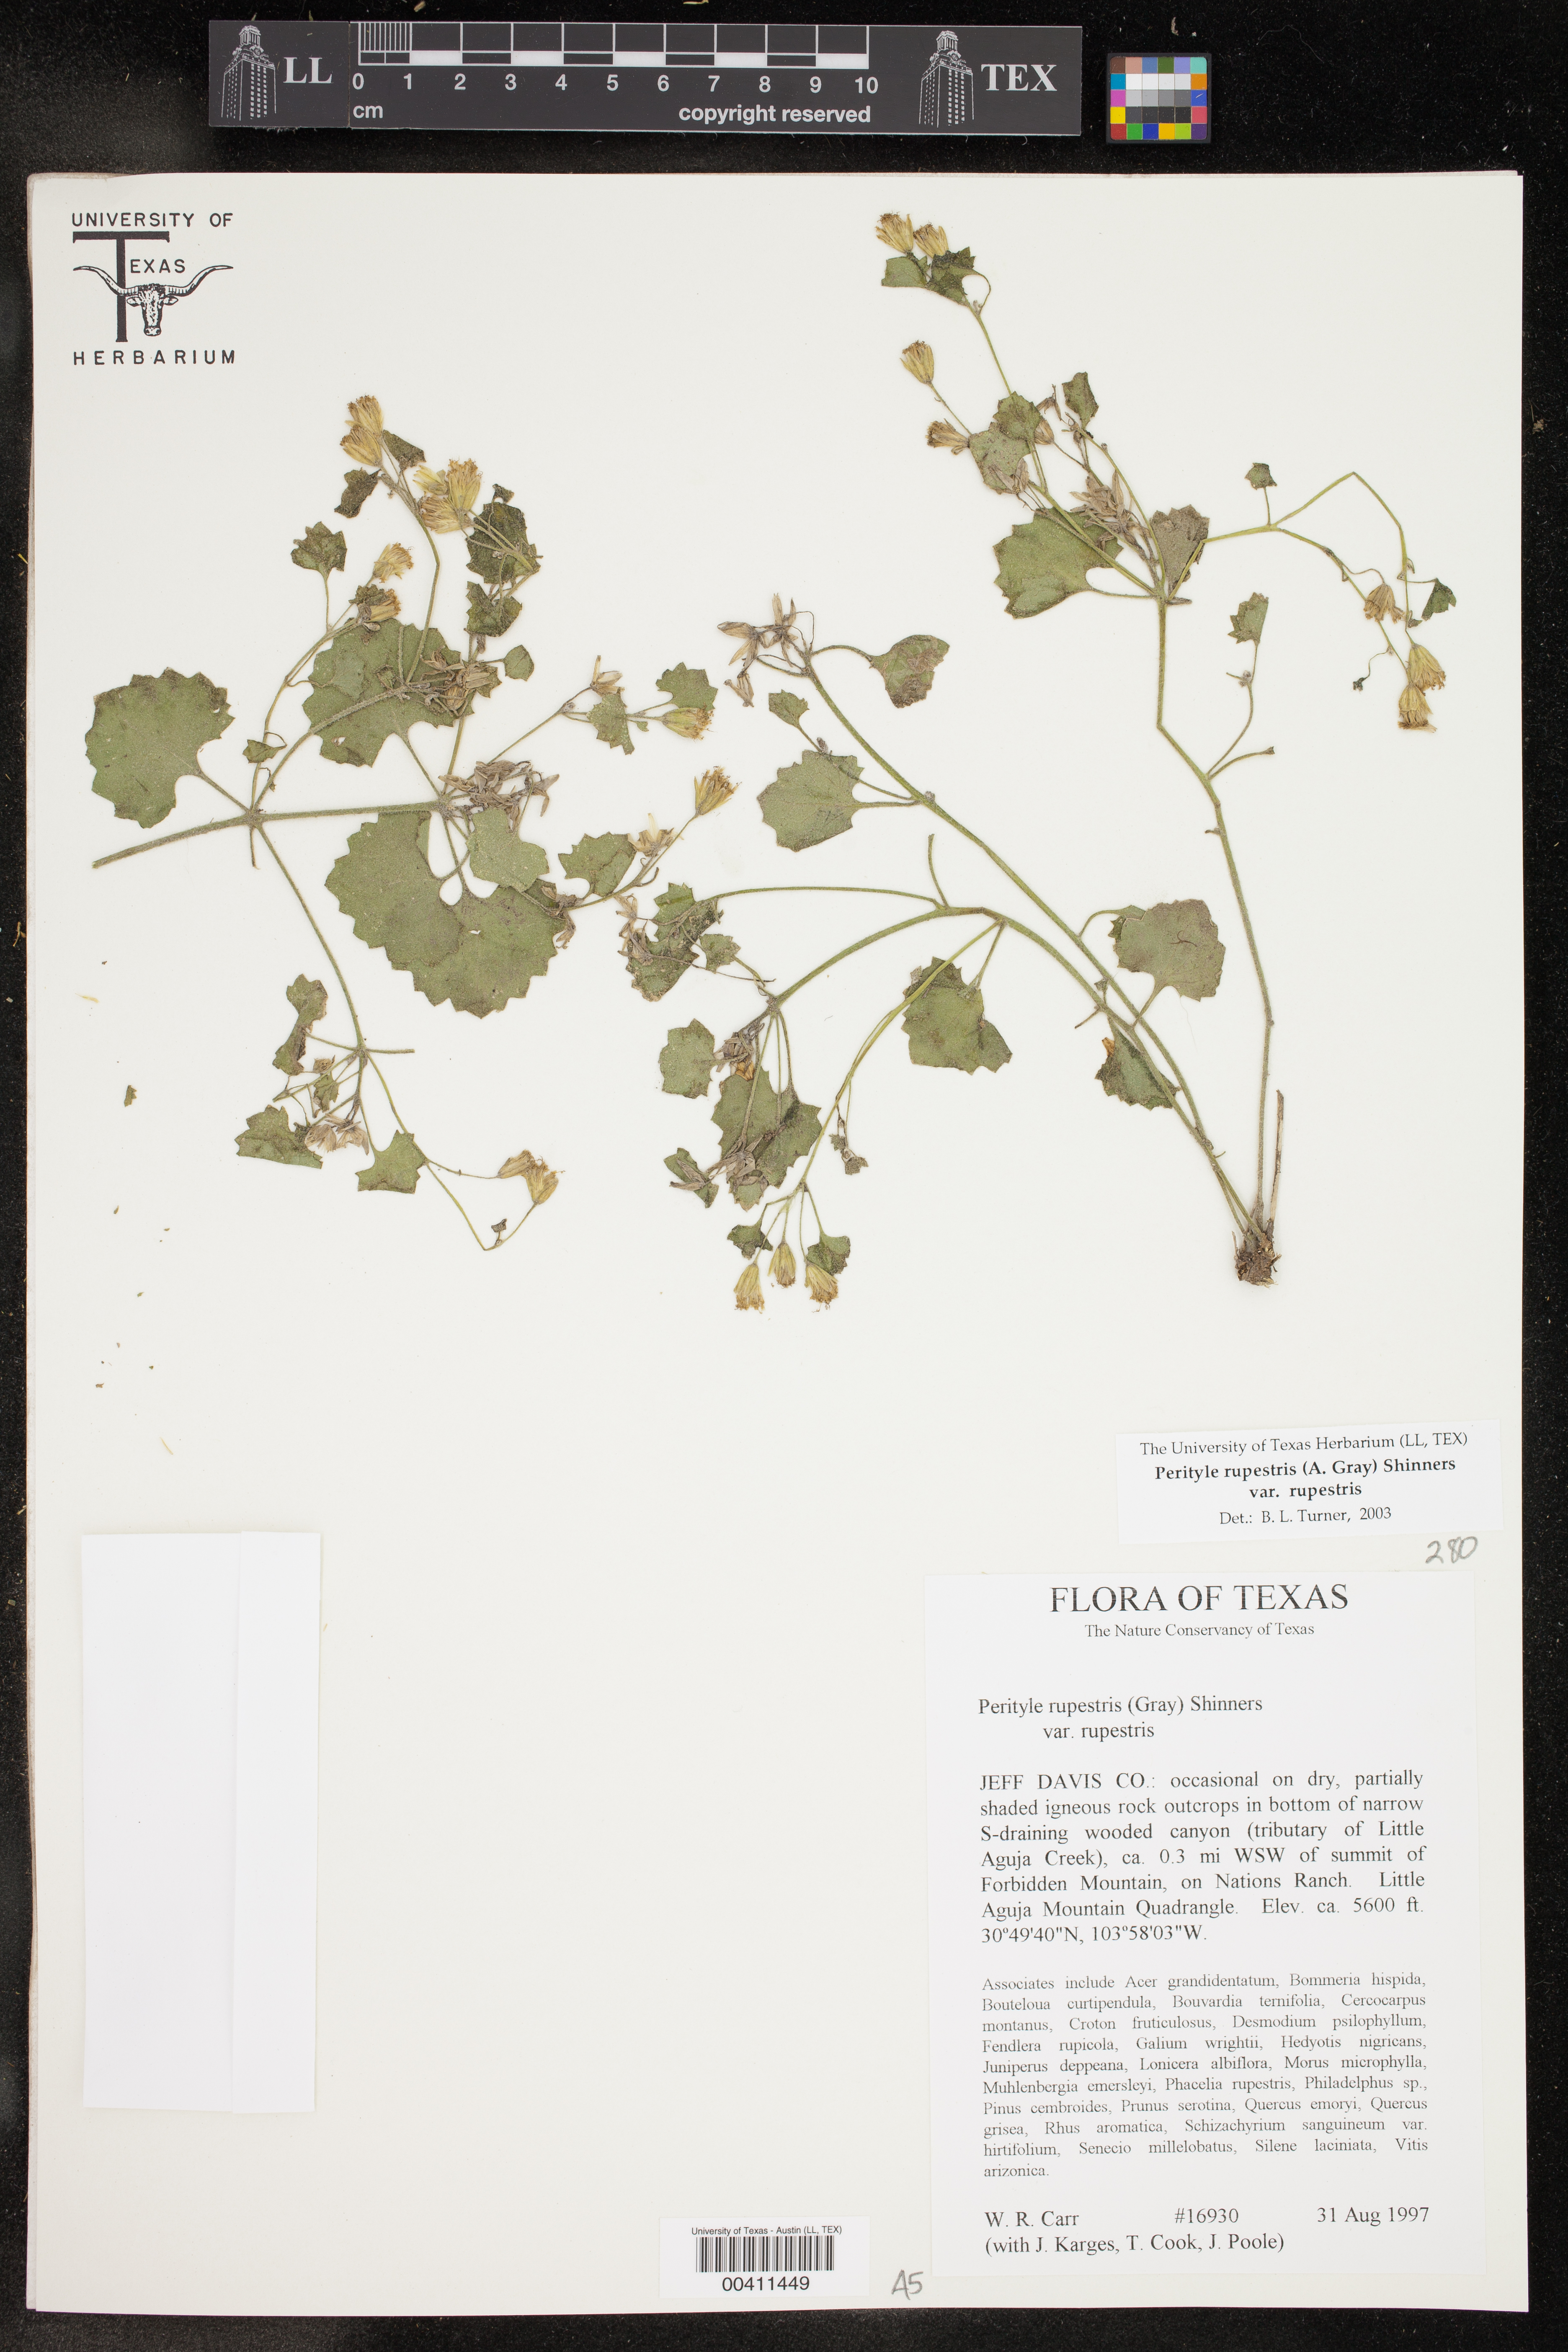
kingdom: Plantae
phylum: Tracheophyta
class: Magnoliopsida
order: Asterales
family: Asteraceae
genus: Laphamia
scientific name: Laphamia rupestris
